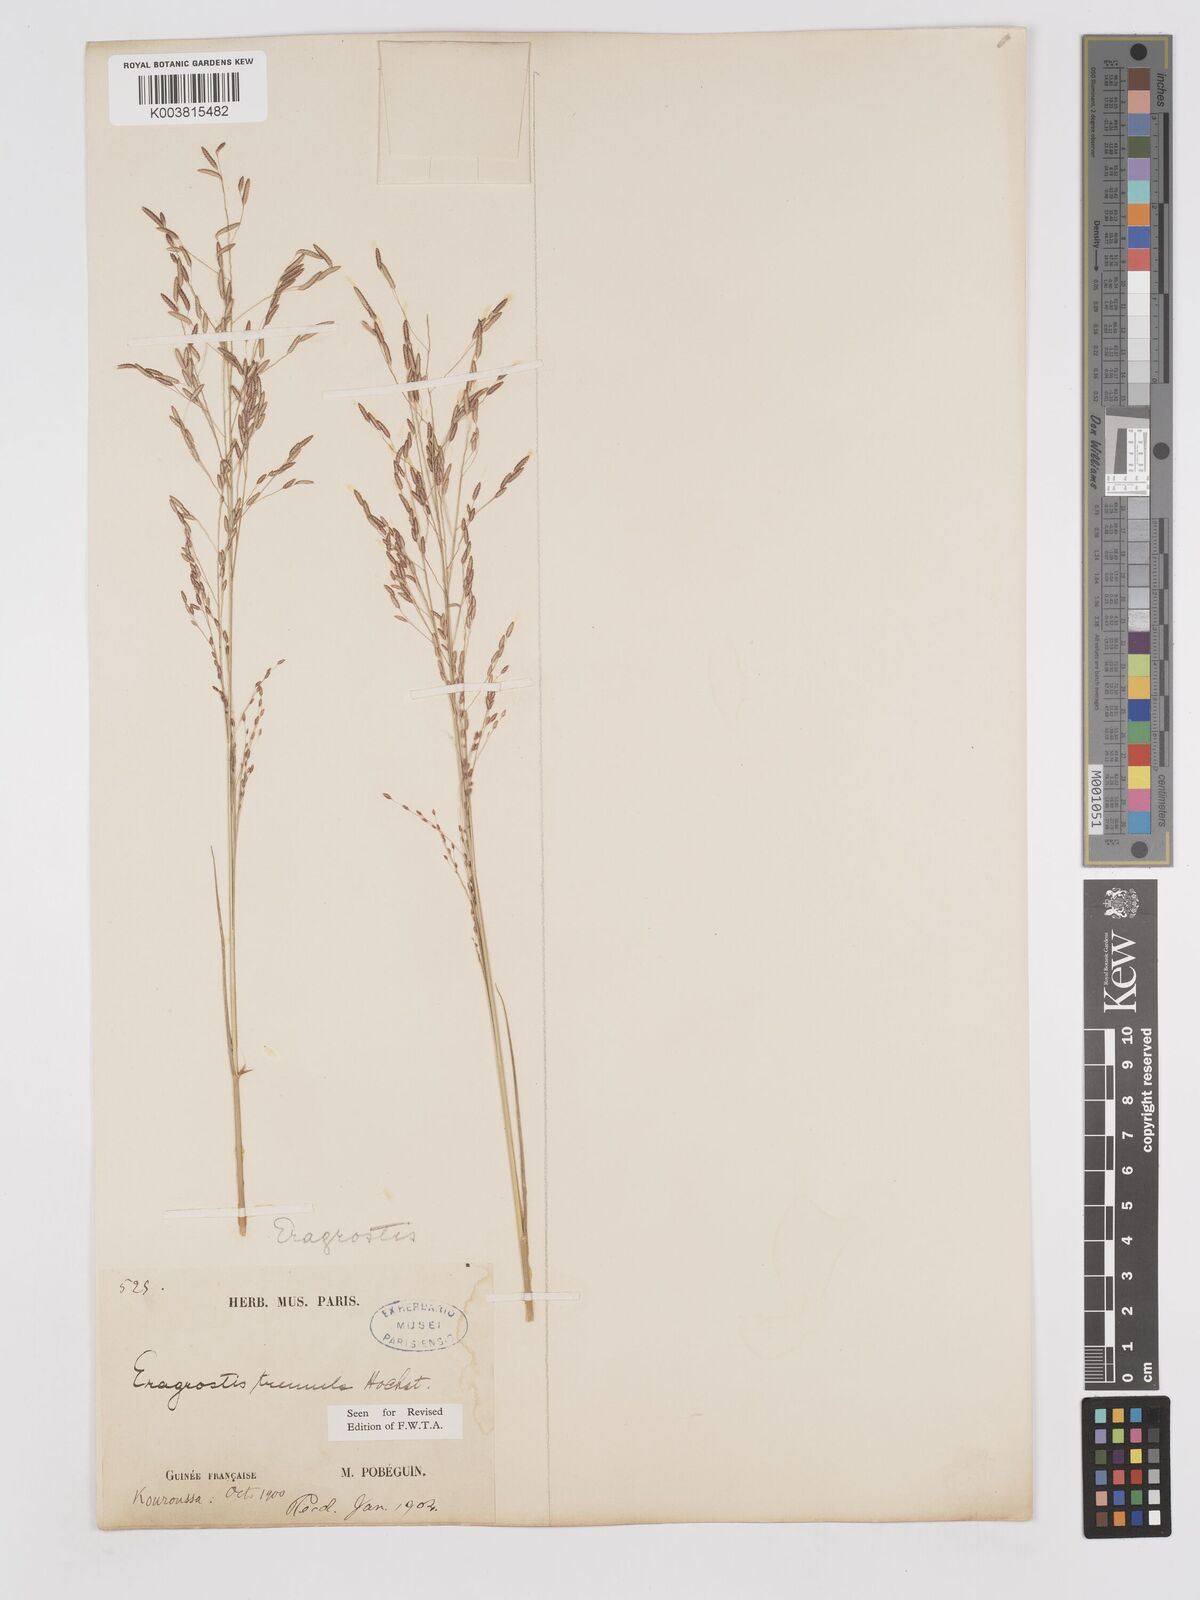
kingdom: Plantae
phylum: Tracheophyta
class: Liliopsida
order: Poales
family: Poaceae
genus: Eragrostis
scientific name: Eragrostis tremula
